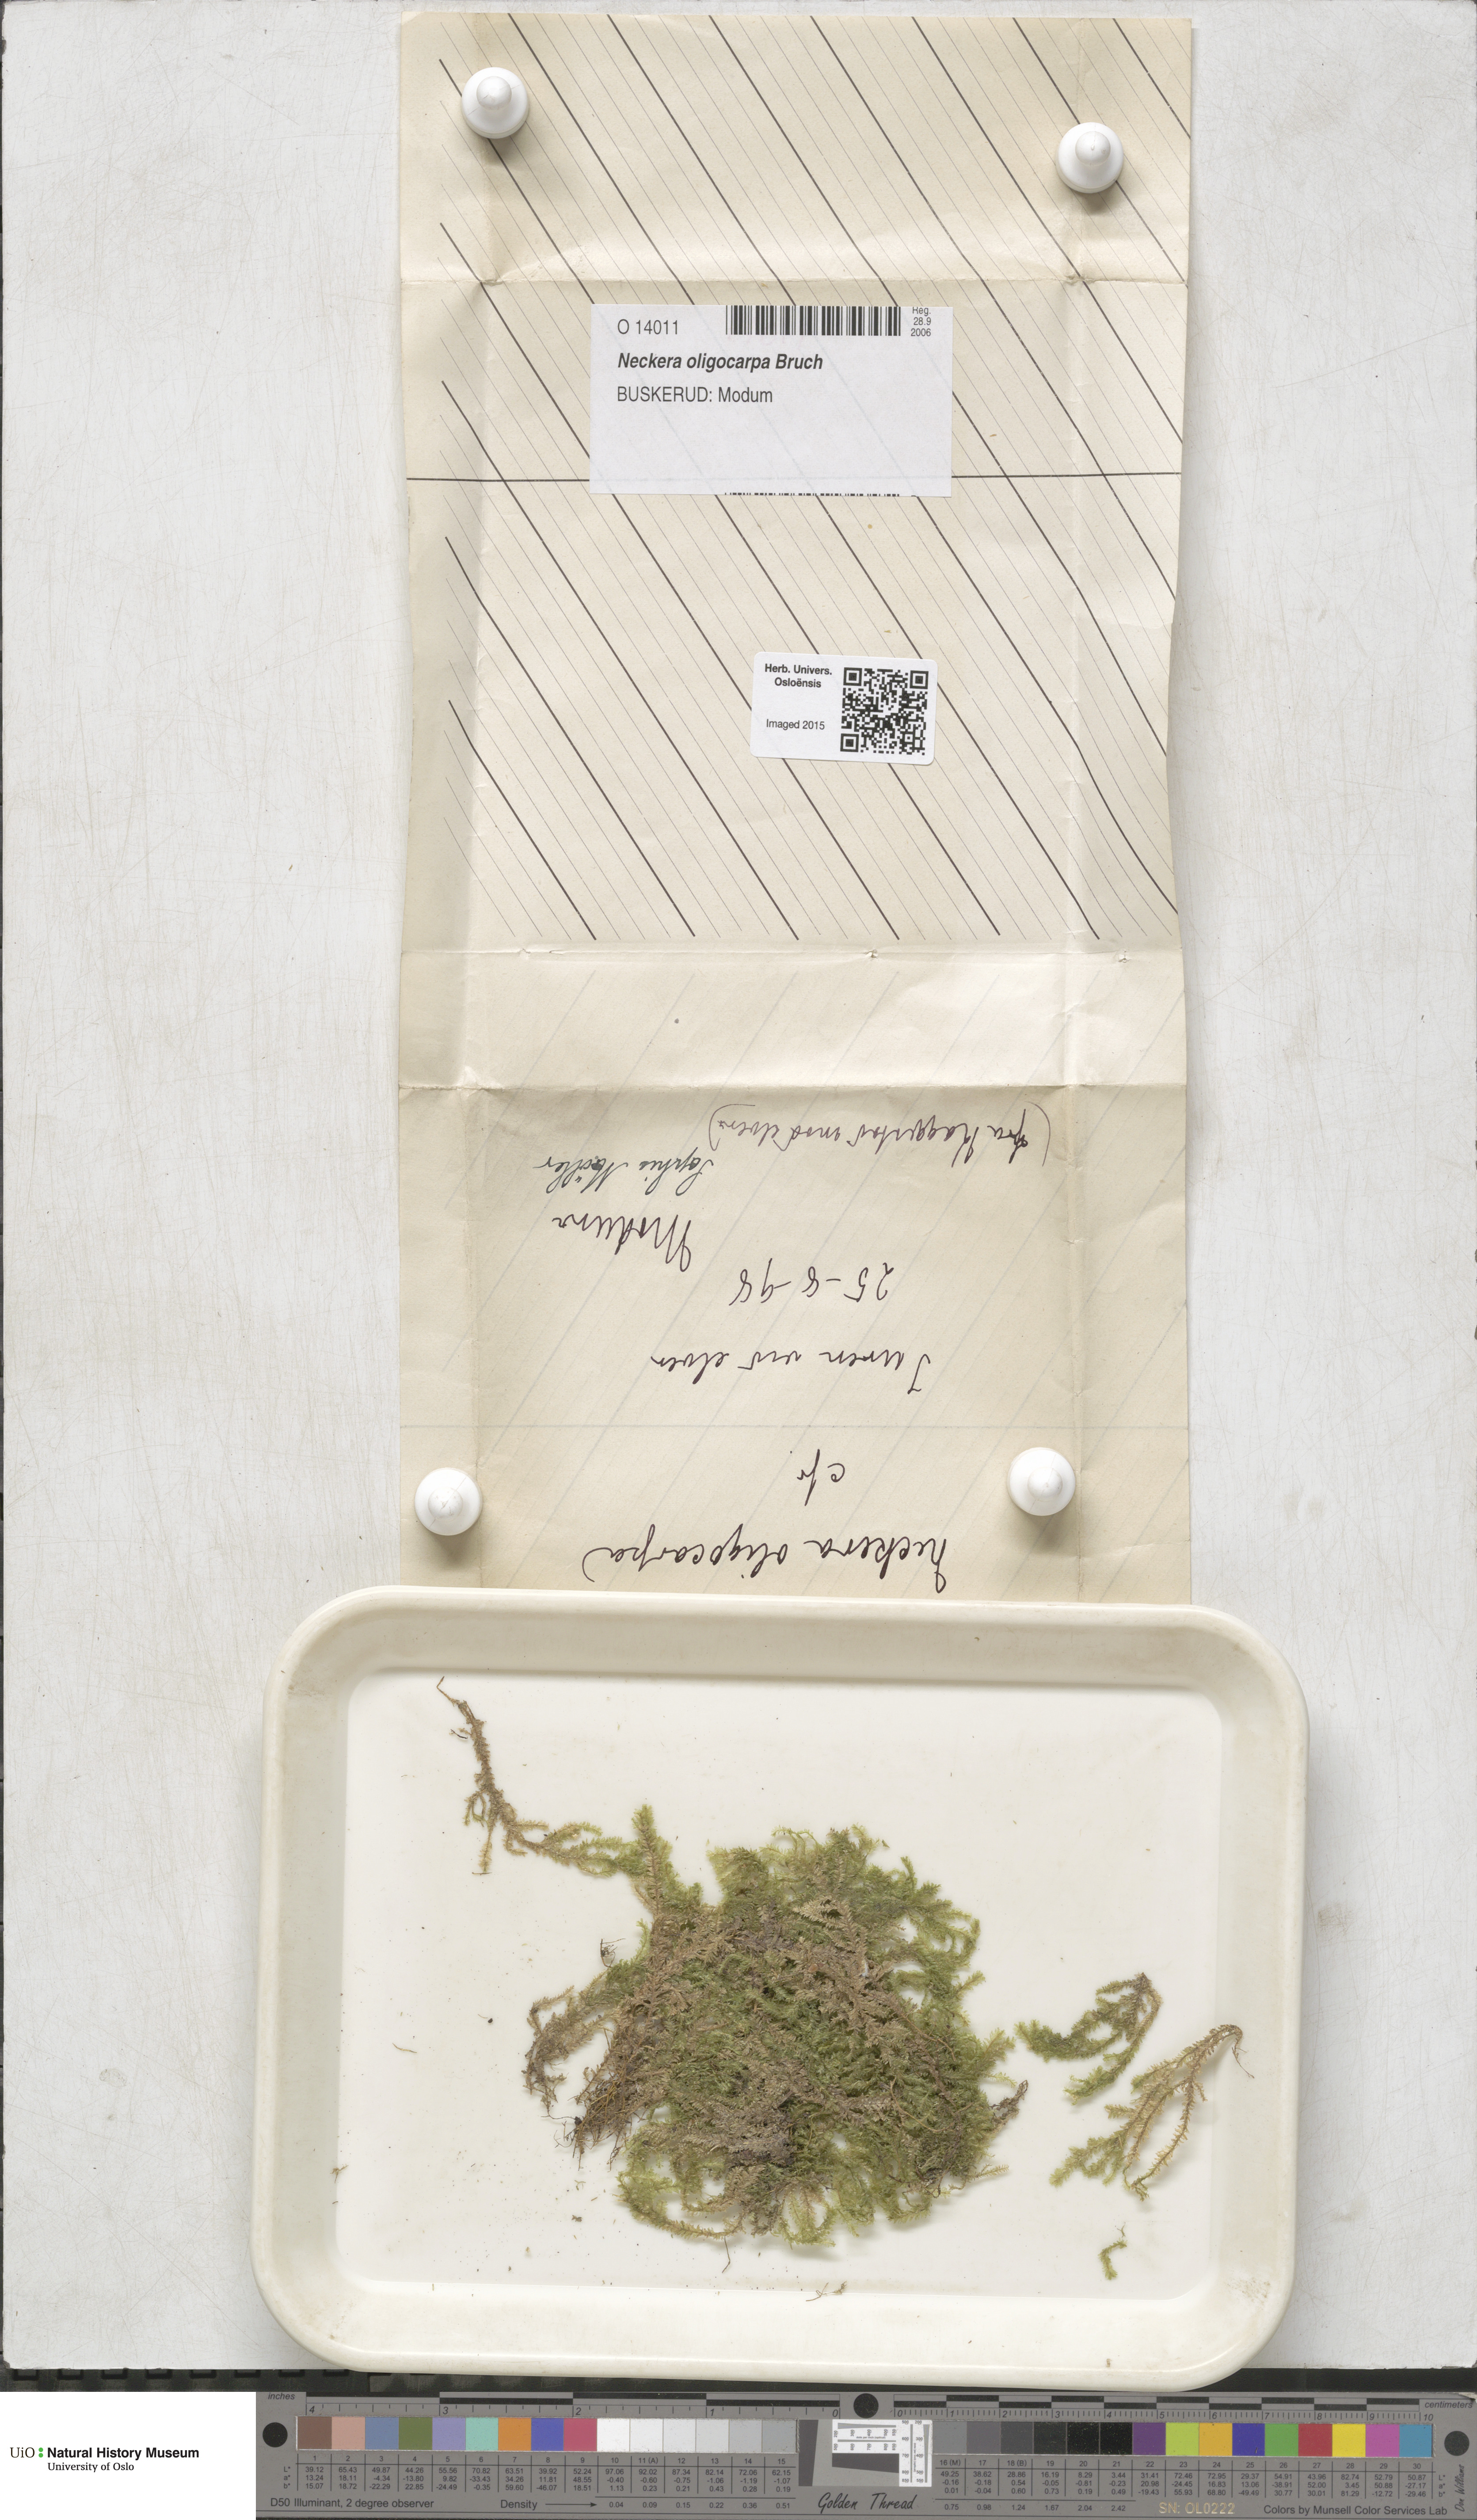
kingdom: Plantae
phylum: Bryophyta
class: Bryopsida
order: Hypnales
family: Neckeraceae
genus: Neckera
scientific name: Neckera oligocarpa
